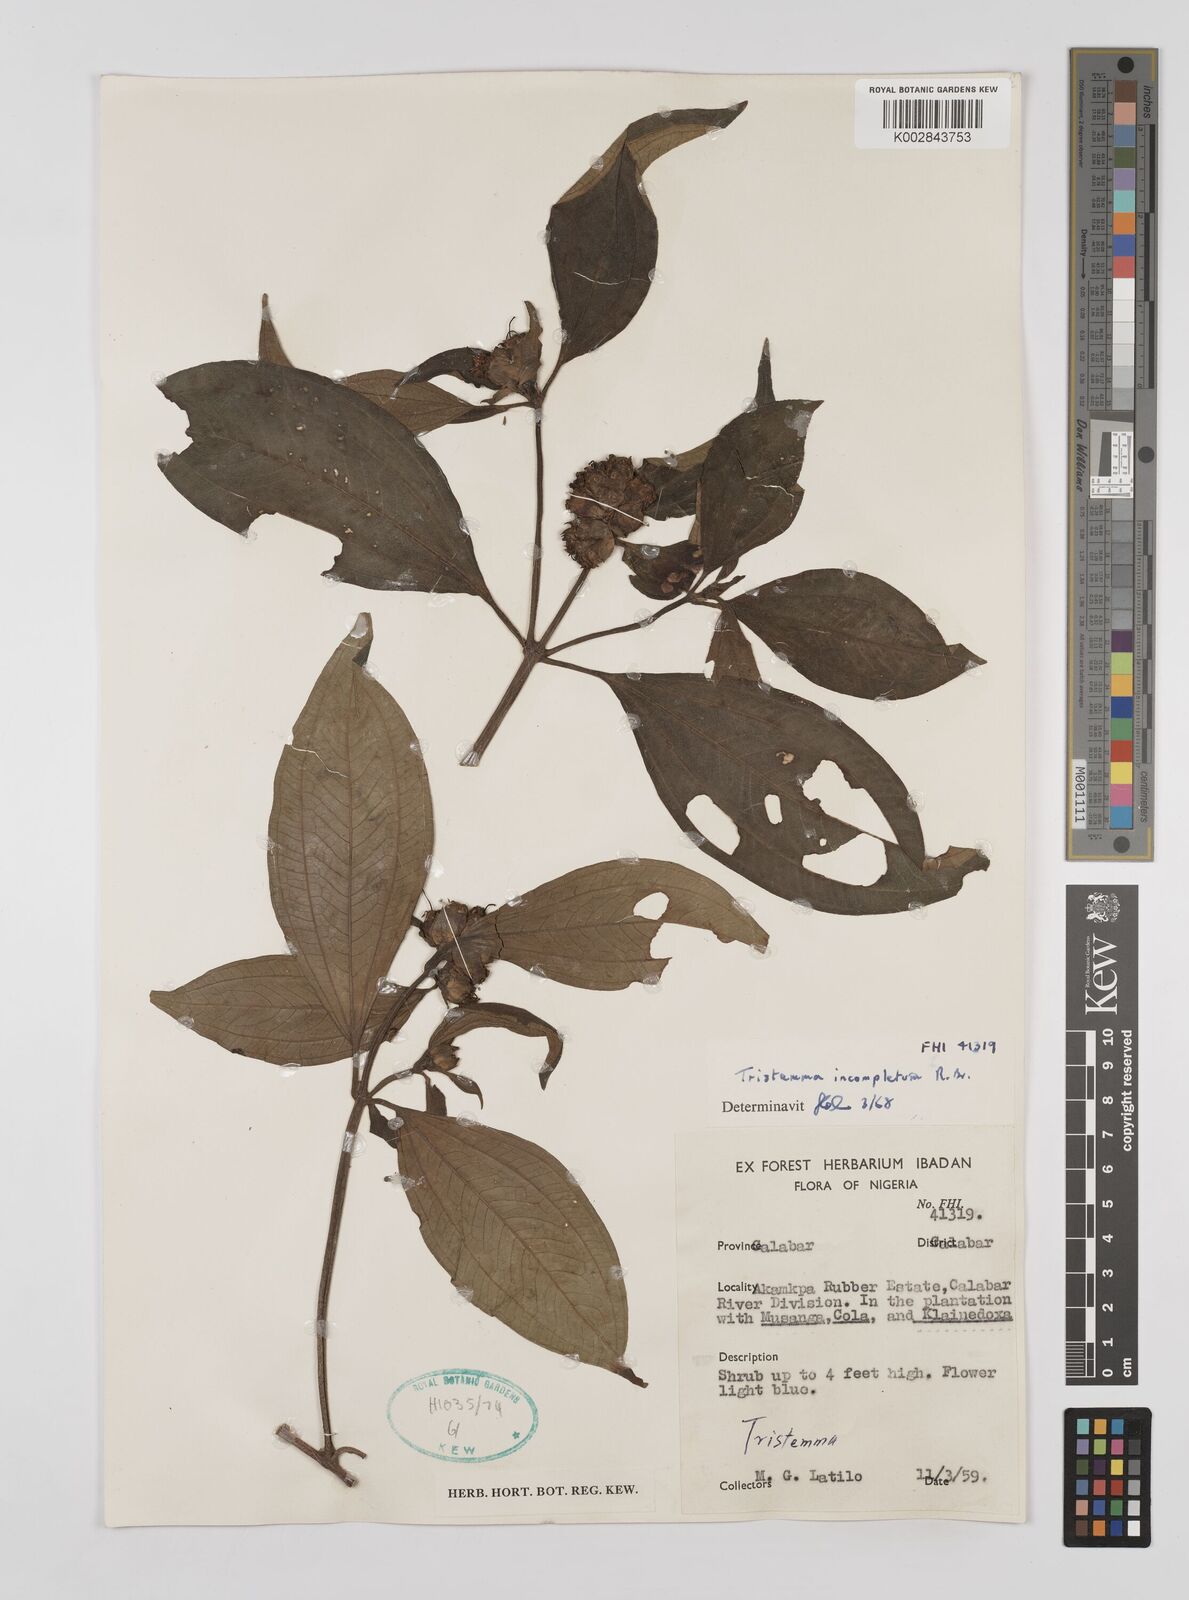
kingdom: Plantae
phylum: Tracheophyta
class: Magnoliopsida
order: Myrtales
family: Melastomataceae
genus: Tristemma
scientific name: Tristemma mauritianum
